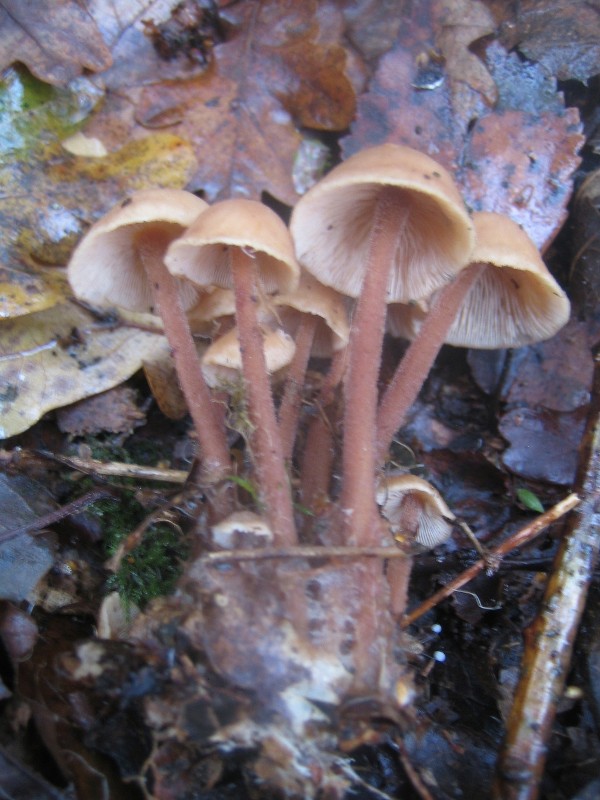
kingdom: Fungi
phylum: Basidiomycota
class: Agaricomycetes
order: Agaricales
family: Omphalotaceae
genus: Collybiopsis
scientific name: Collybiopsis confluens
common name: knippe-fladhat
